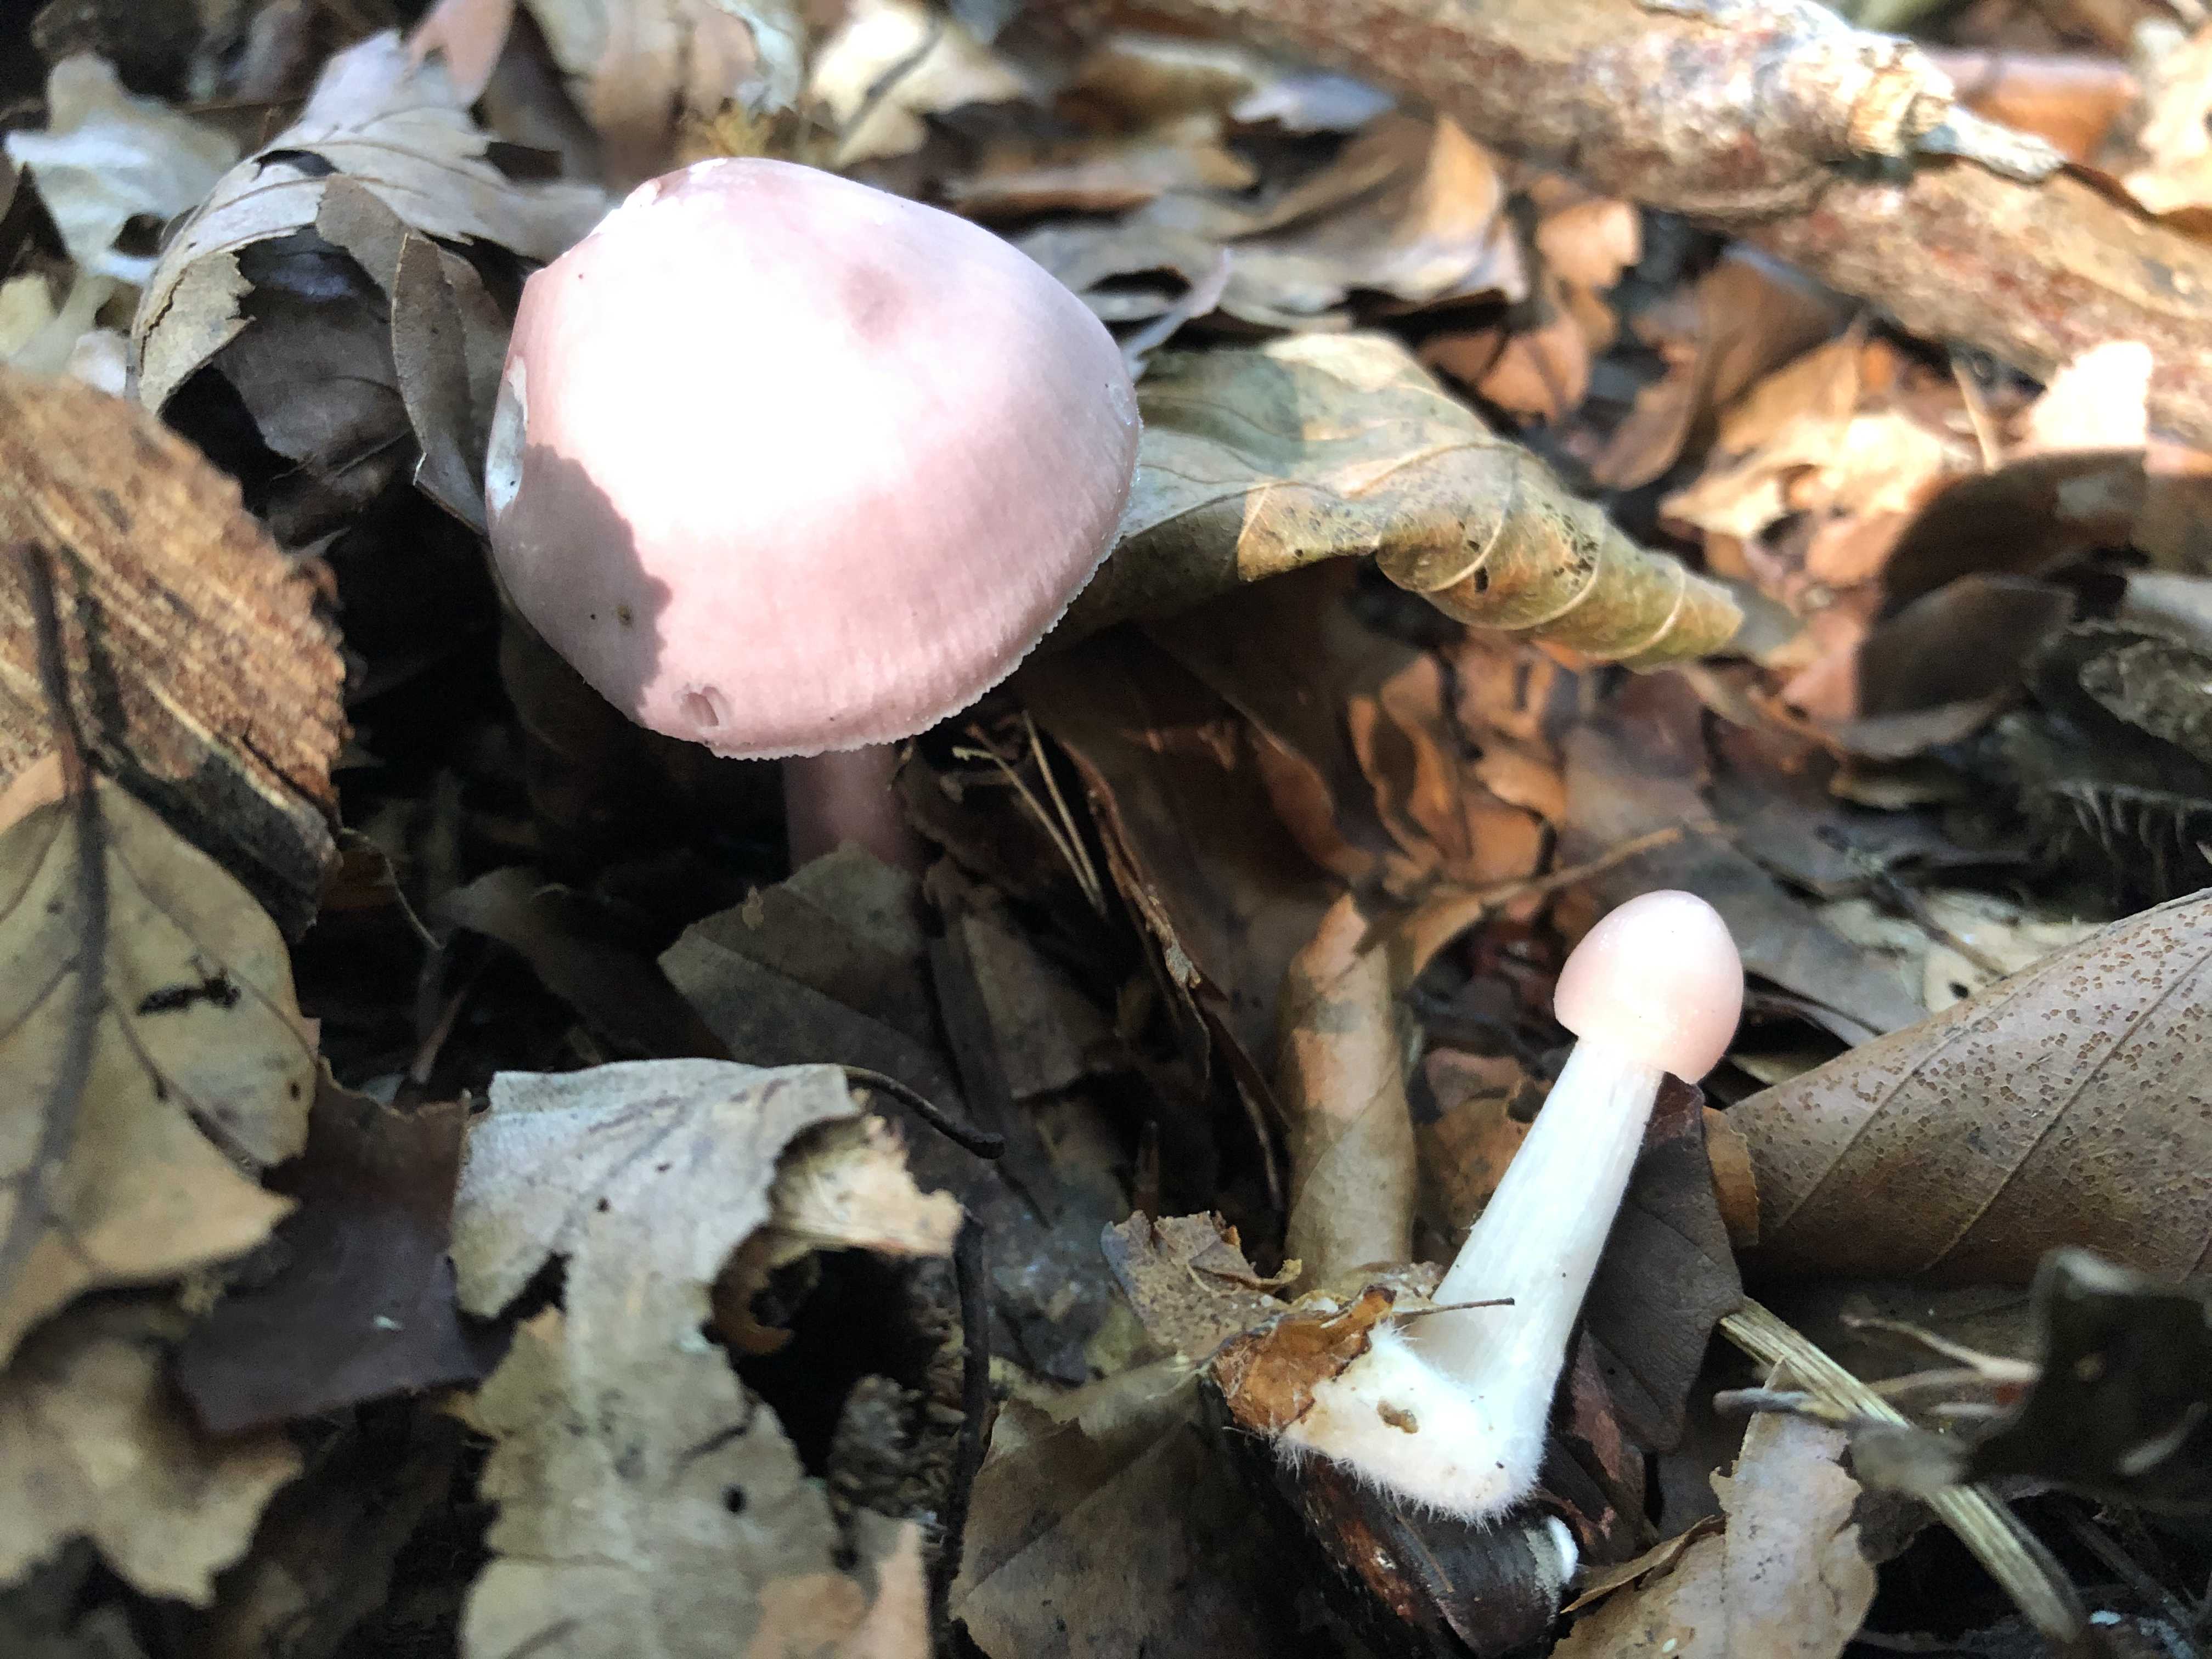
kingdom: Fungi
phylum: Basidiomycota
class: Agaricomycetes
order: Agaricales
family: Mycenaceae
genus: Mycena
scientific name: Mycena rosea
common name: rosa huesvamp
